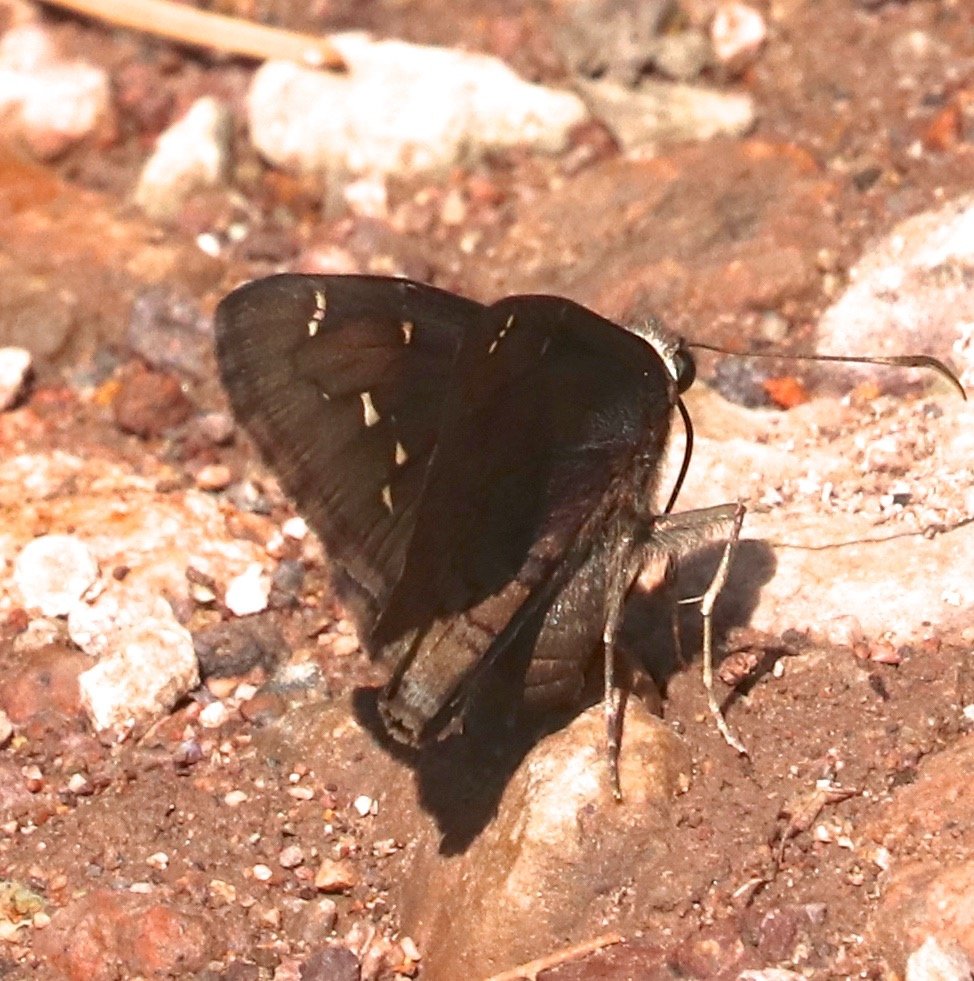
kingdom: Animalia
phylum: Arthropoda
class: Insecta
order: Lepidoptera
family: Hesperiidae
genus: Autochton
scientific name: Autochton
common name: Northern Cloudywing
